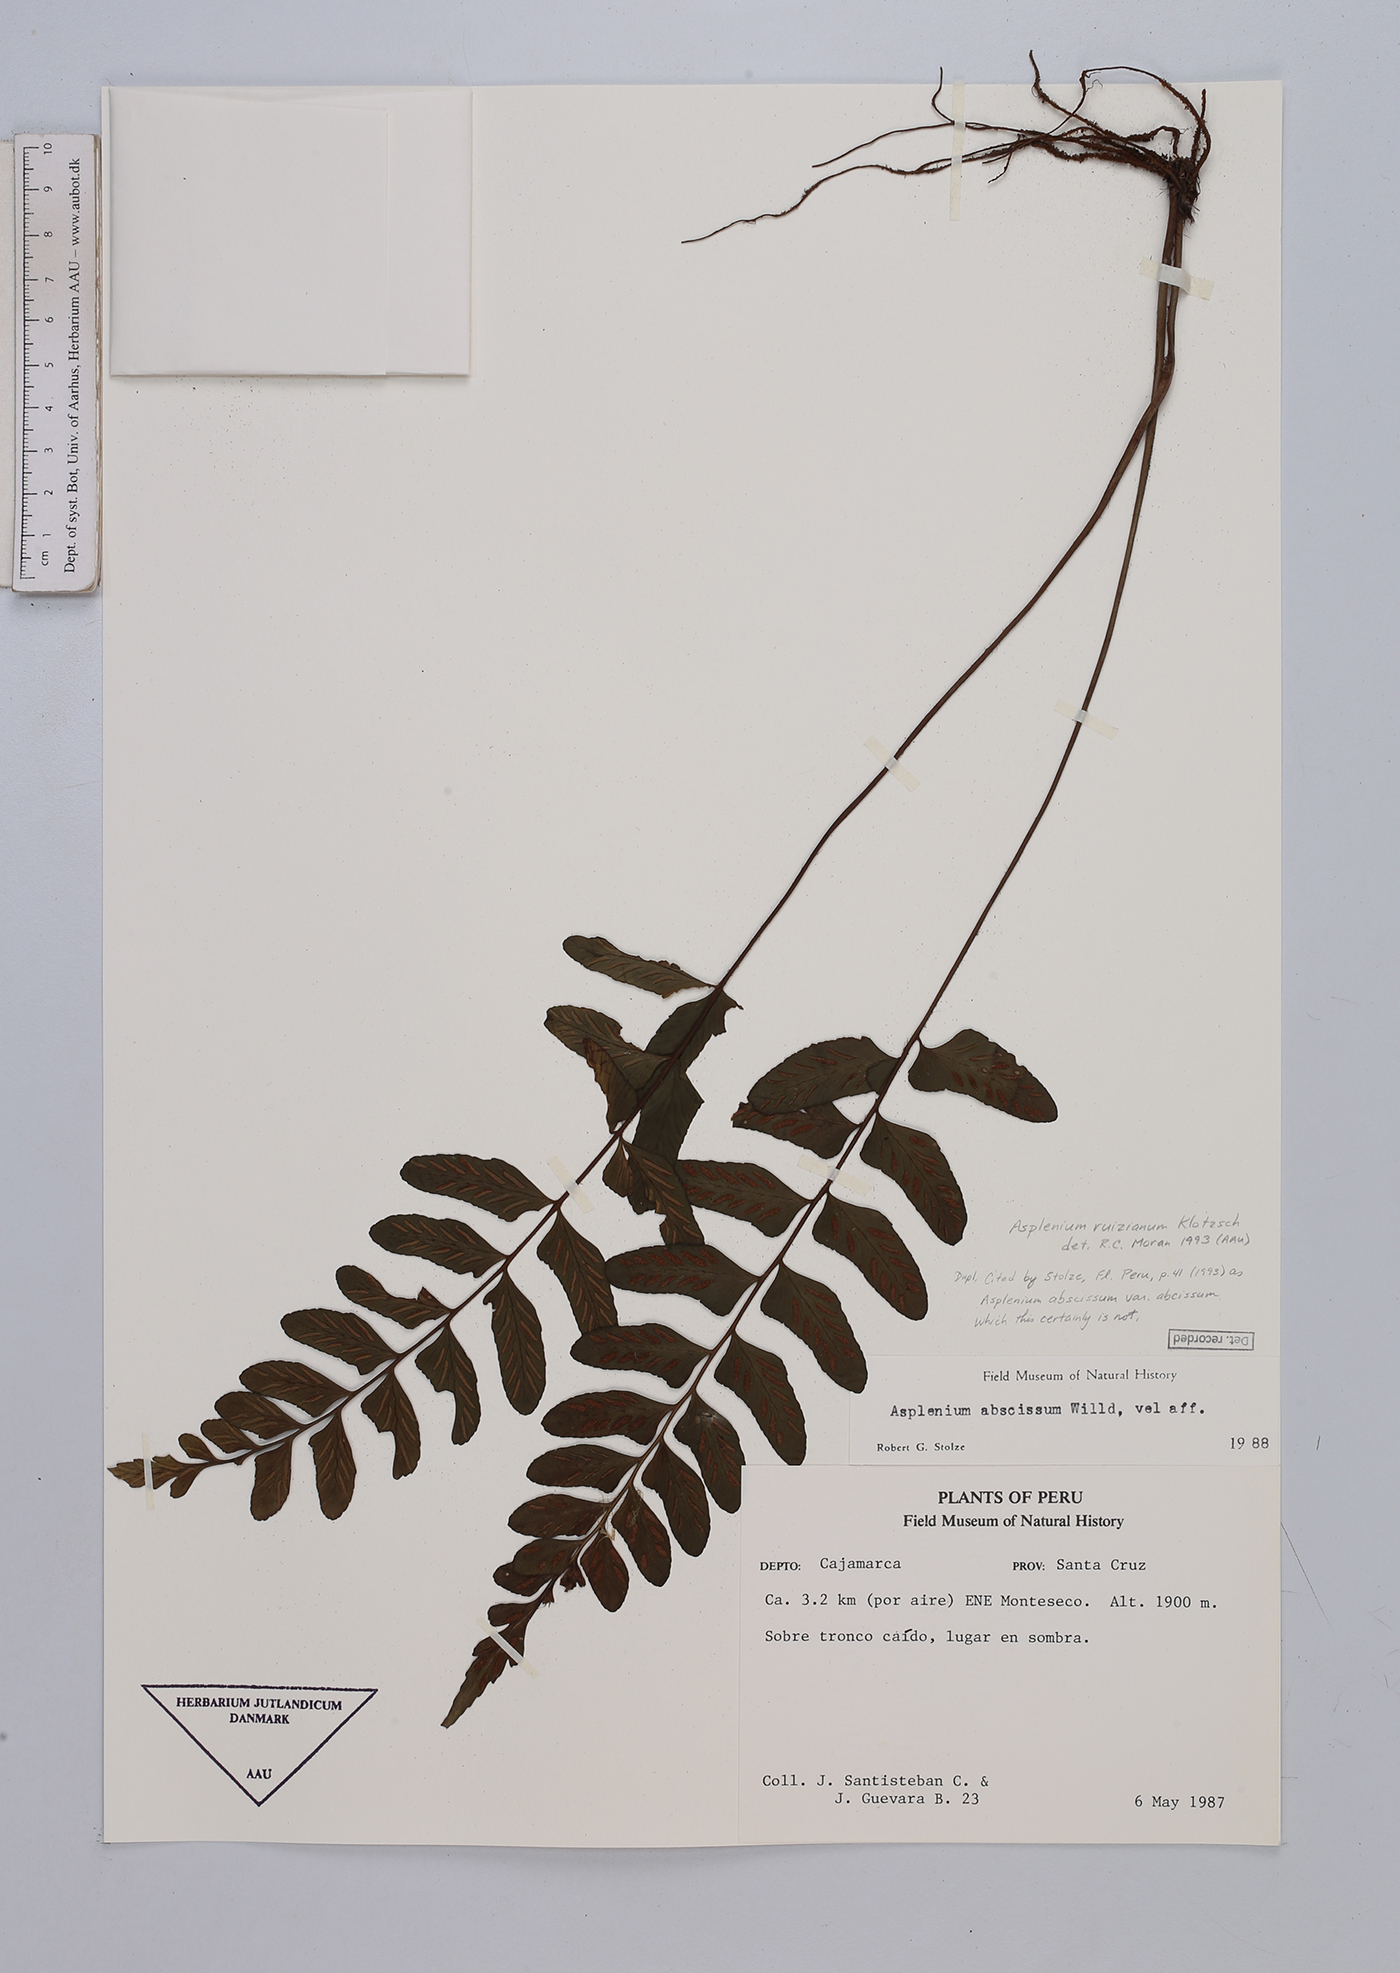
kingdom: Plantae
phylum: Tracheophyta
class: Polypodiopsida
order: Polypodiales
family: Aspleniaceae
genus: Asplenium
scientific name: Asplenium ruizianum
